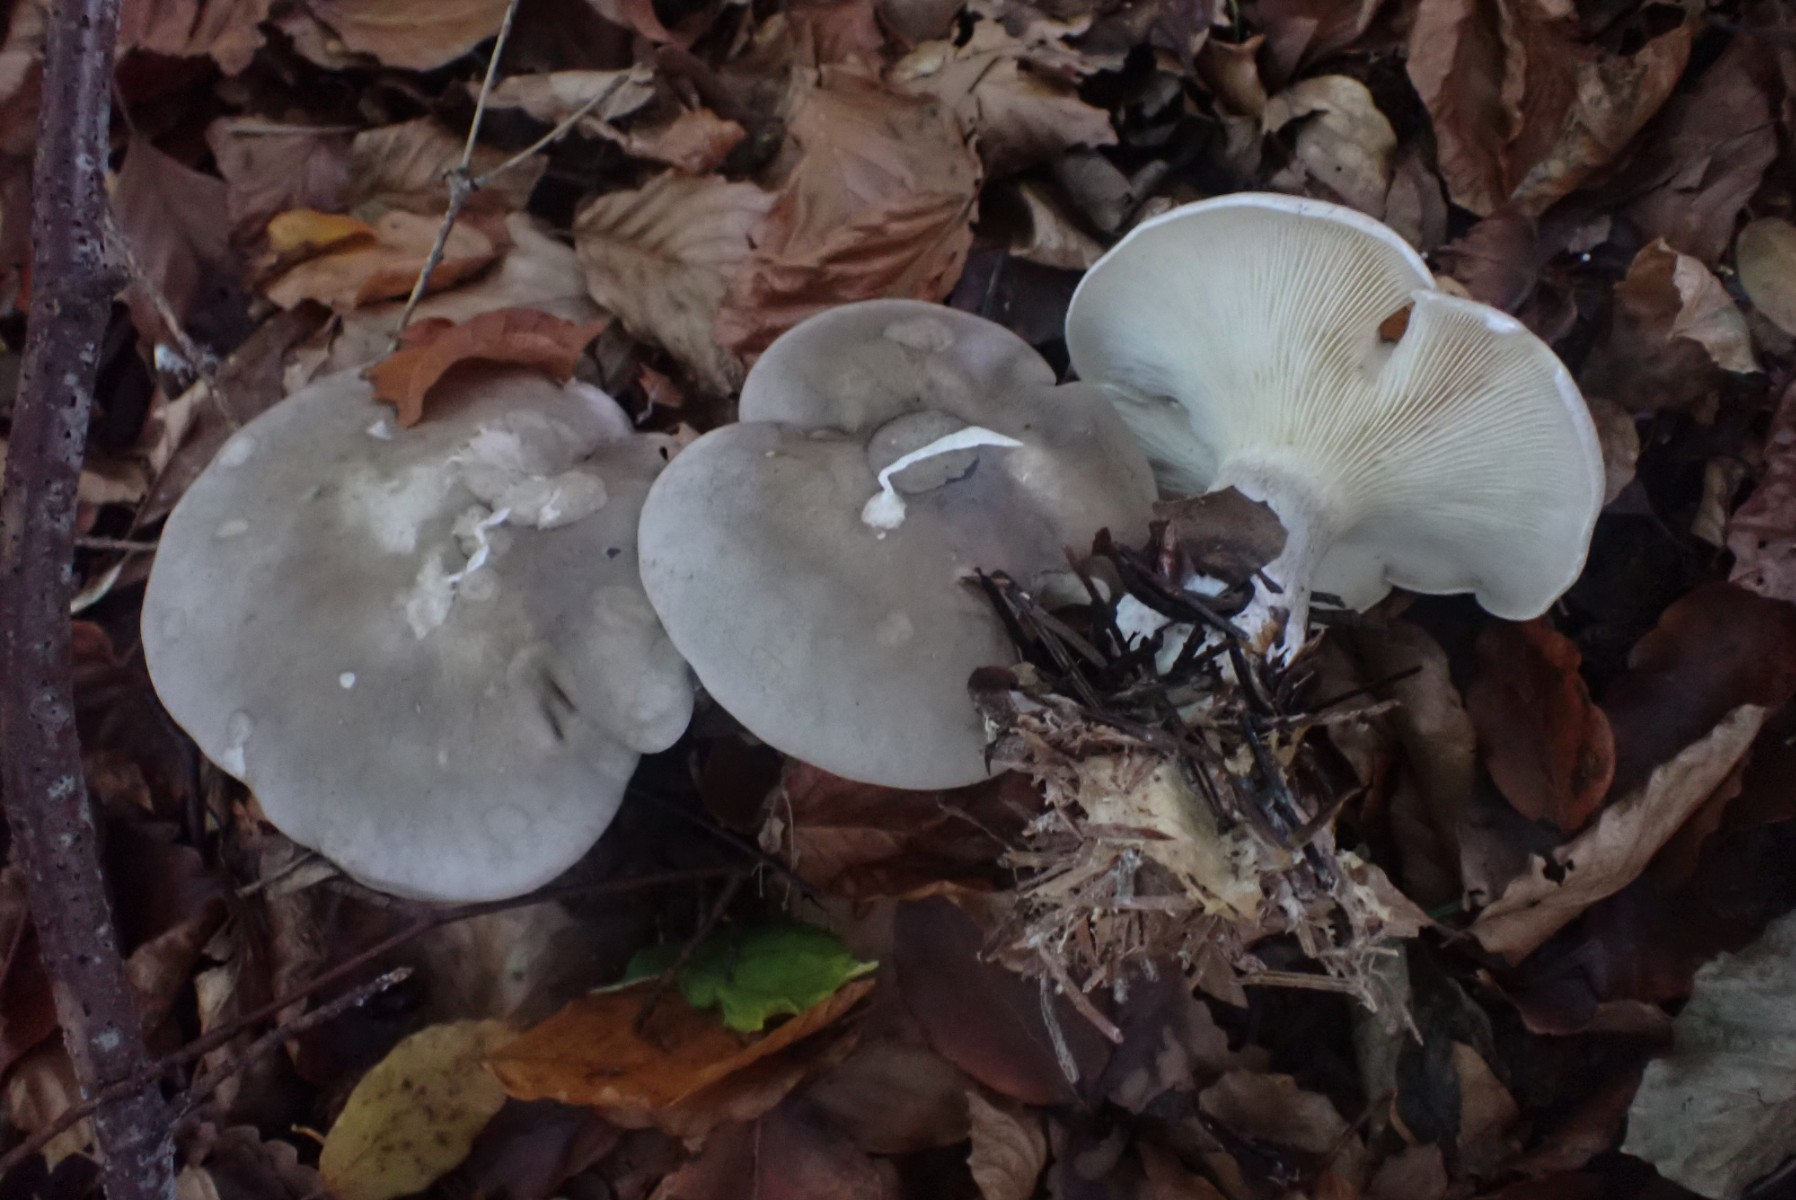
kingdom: Fungi
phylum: Basidiomycota
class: Agaricomycetes
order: Agaricales
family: Tricholomataceae
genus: Clitocybe
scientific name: Clitocybe nebularis
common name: tåge-tragthat
